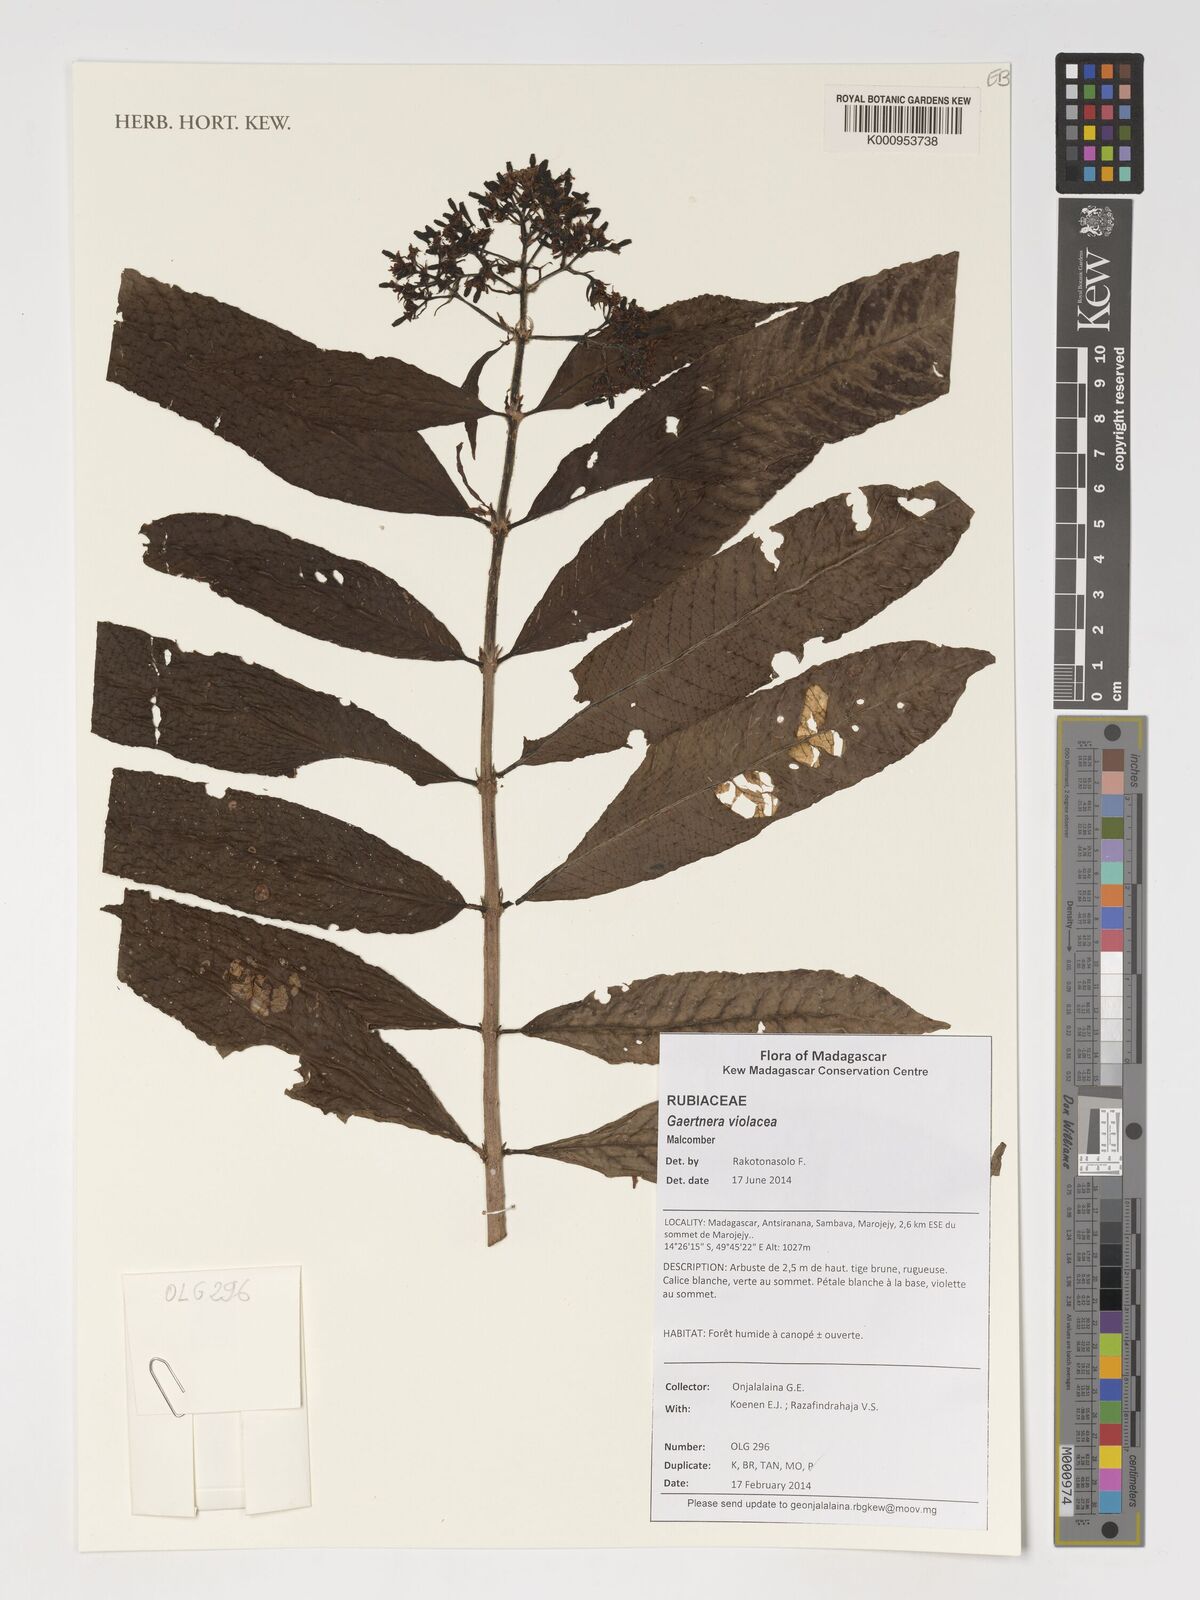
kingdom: Plantae
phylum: Tracheophyta
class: Magnoliopsida
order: Gentianales
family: Rubiaceae
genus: Gaertnera
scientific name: Gaertnera
